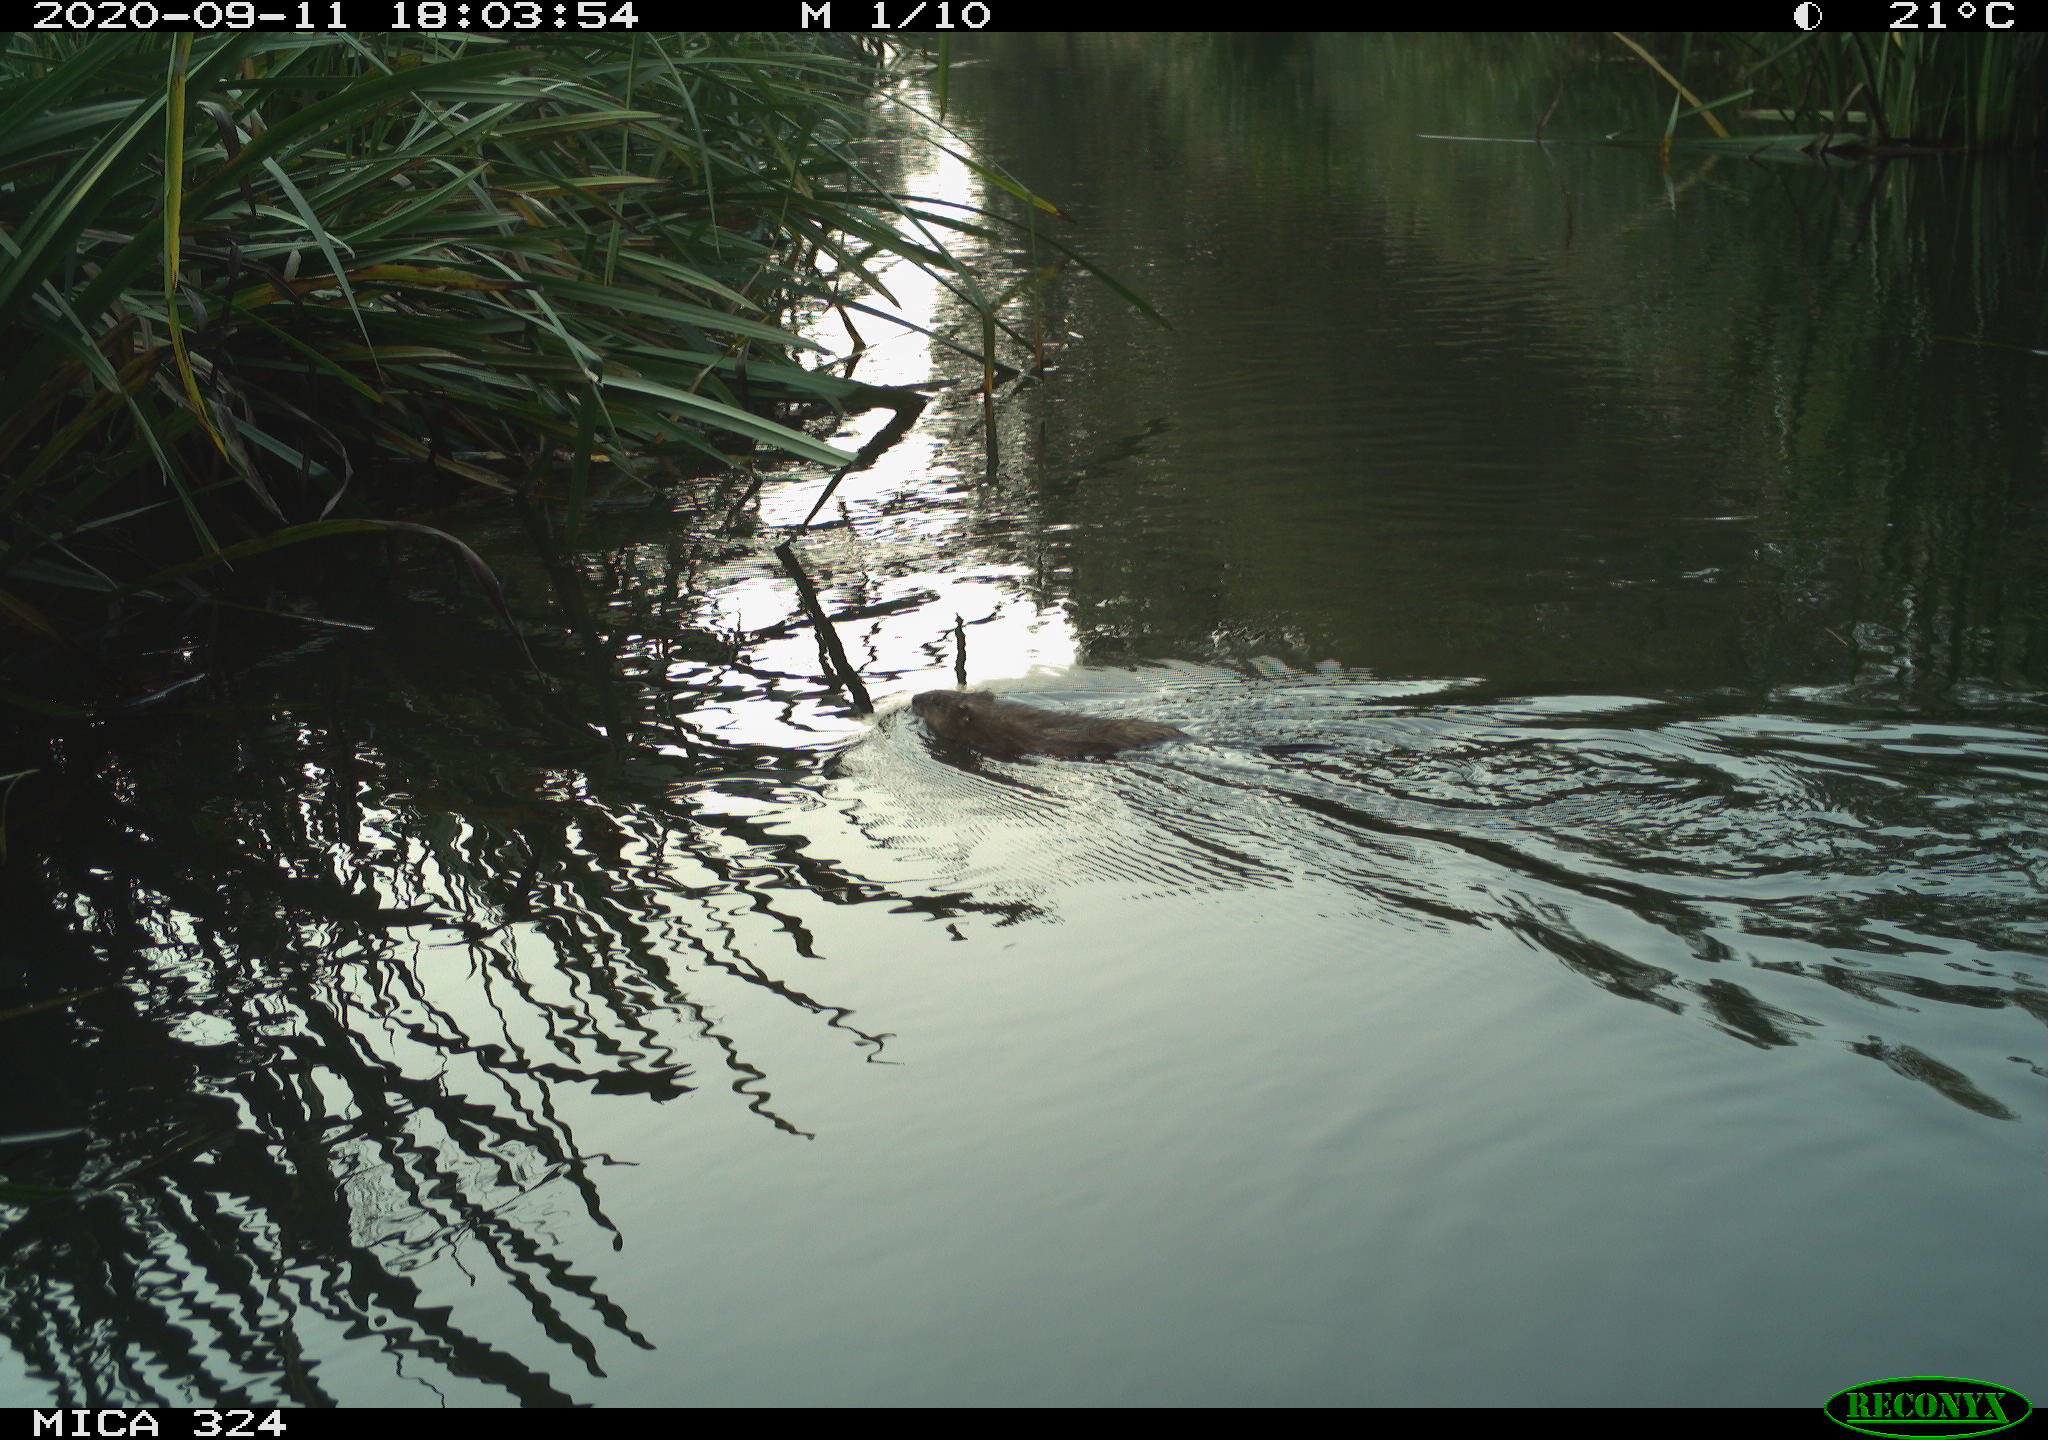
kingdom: Animalia
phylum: Chordata
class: Mammalia
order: Rodentia
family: Cricetidae
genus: Ondatra
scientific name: Ondatra zibethicus
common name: Muskrat
